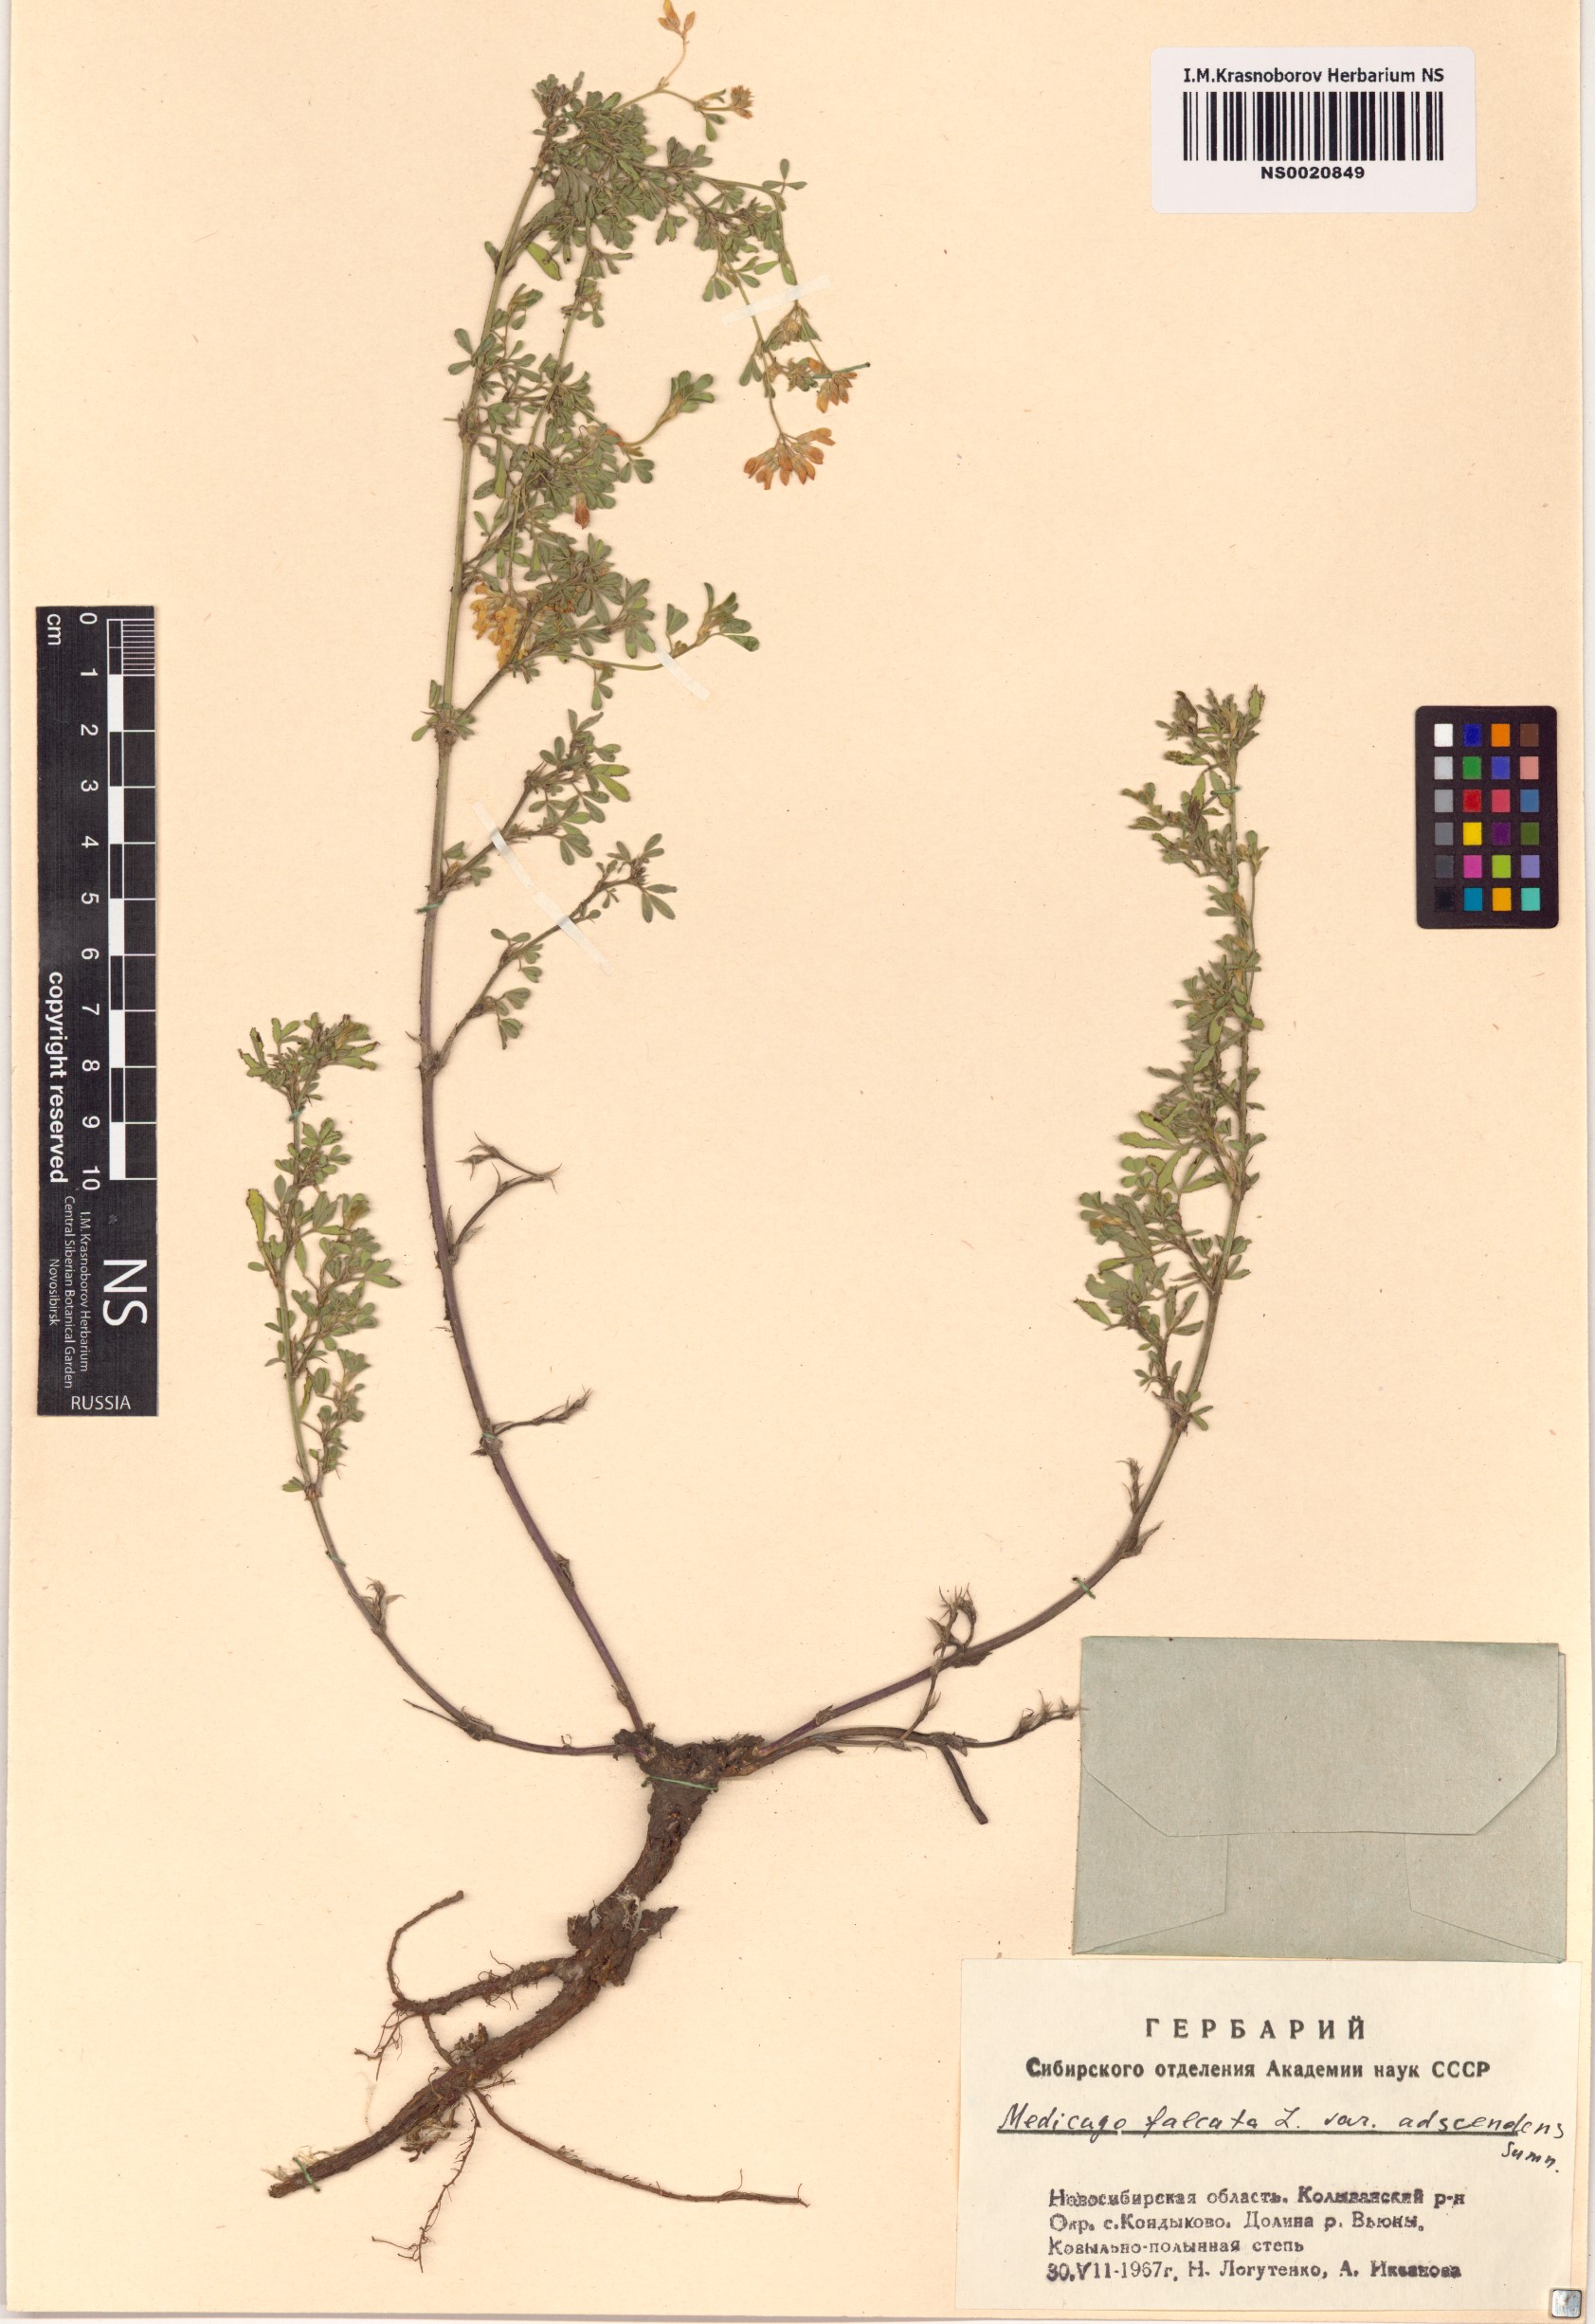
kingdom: Plantae
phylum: Tracheophyta
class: Magnoliopsida
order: Fabales
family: Fabaceae
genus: Medicago
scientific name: Medicago falcata
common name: Sickle medick
